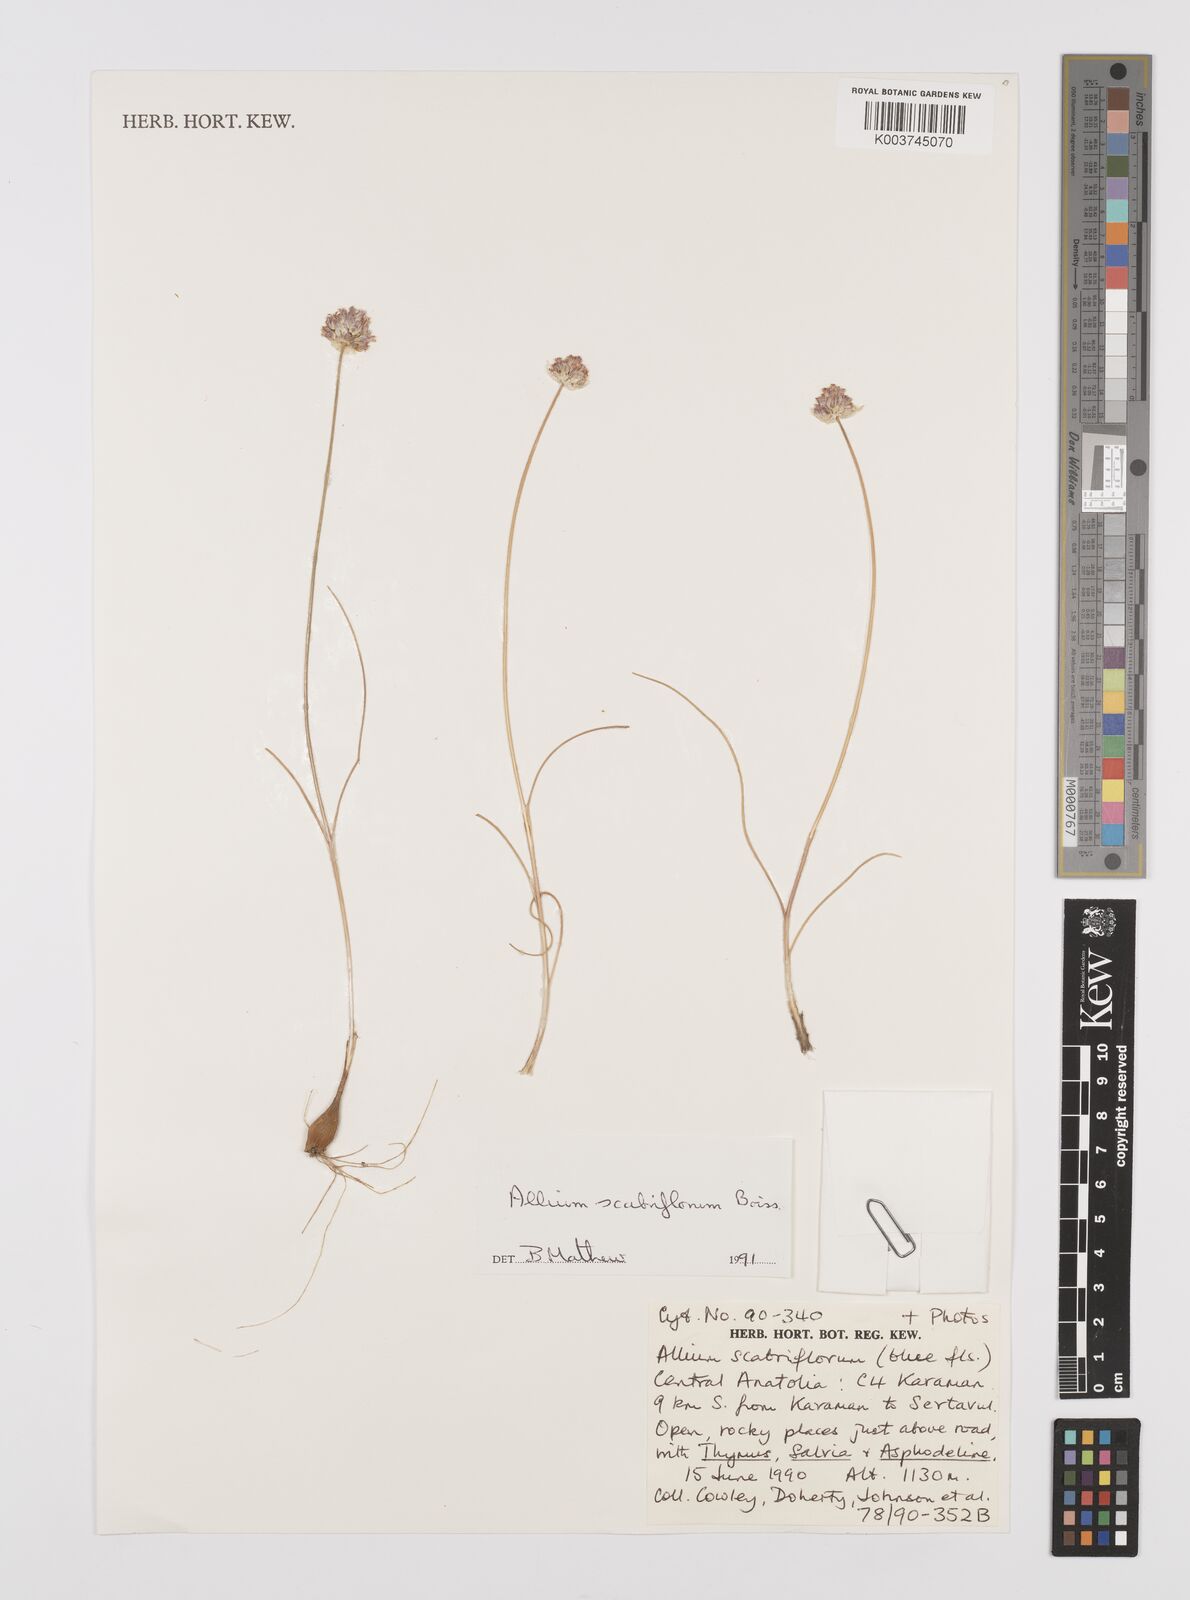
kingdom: Plantae
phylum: Tracheophyta
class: Liliopsida
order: Asparagales
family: Amaryllidaceae
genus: Allium
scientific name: Allium scabriflorum
